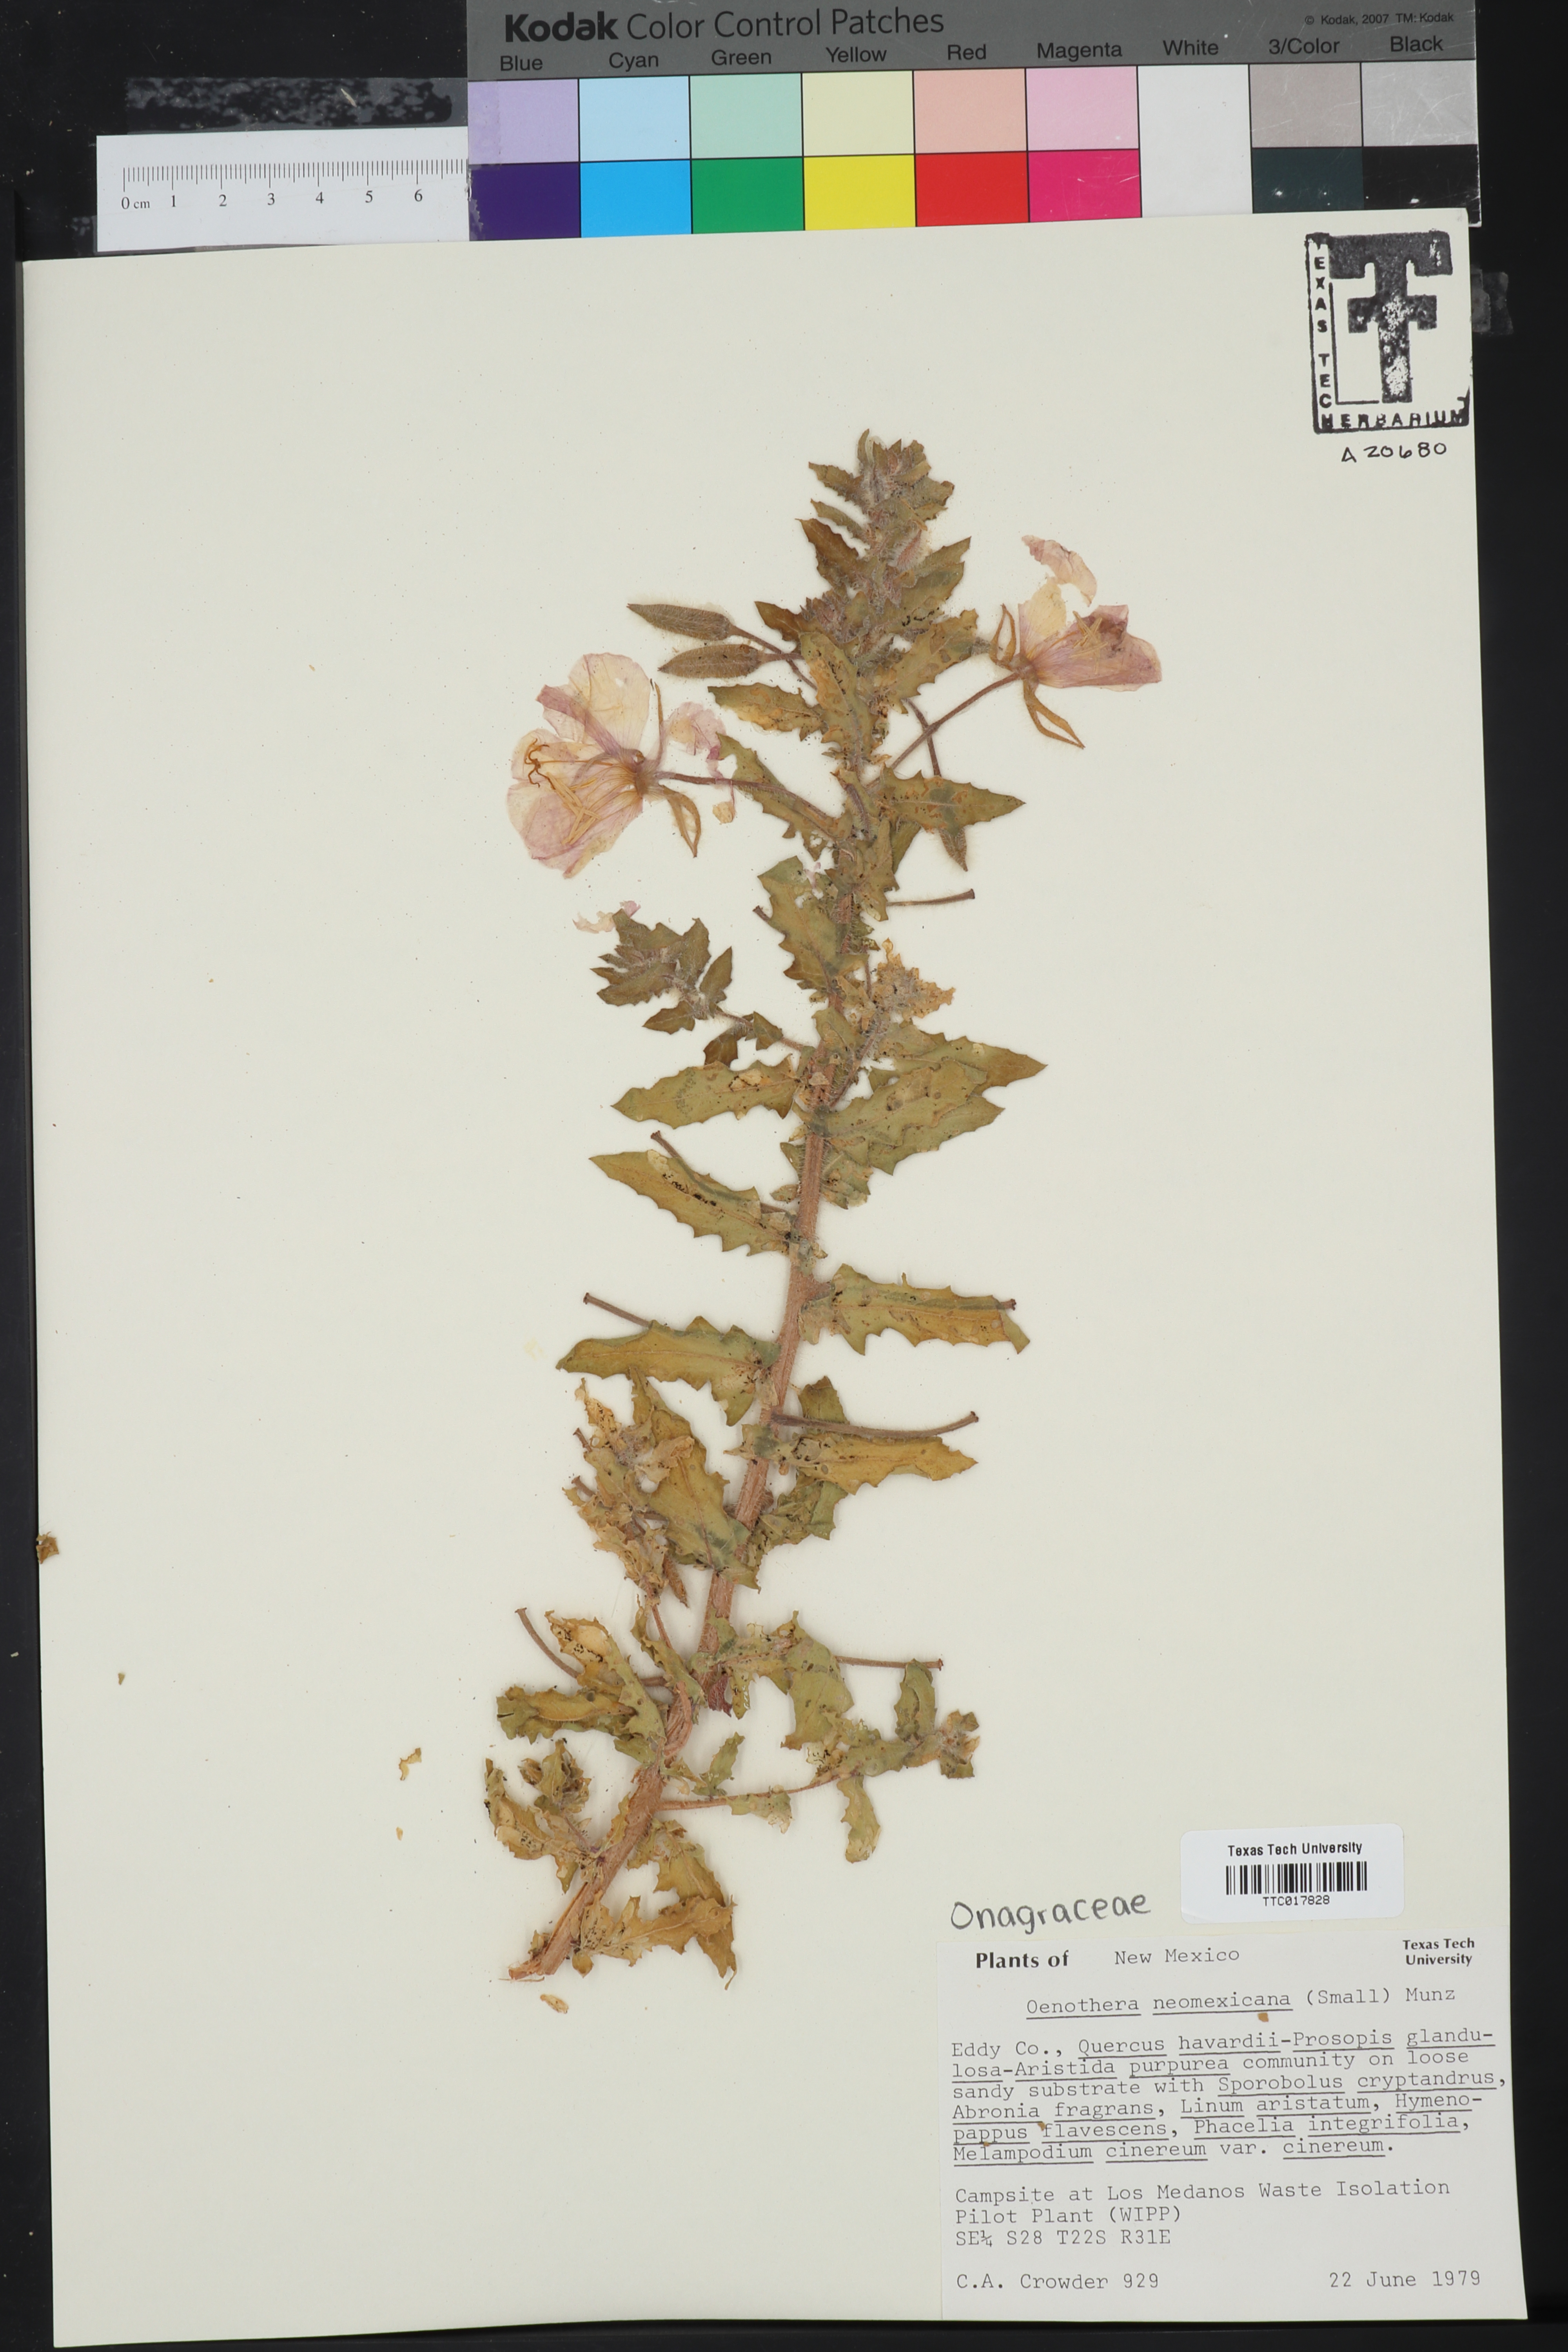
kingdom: Plantae
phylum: Tracheophyta
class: Magnoliopsida
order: Myrtales
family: Onagraceae
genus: Oenothera
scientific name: Oenothera neomexicana
